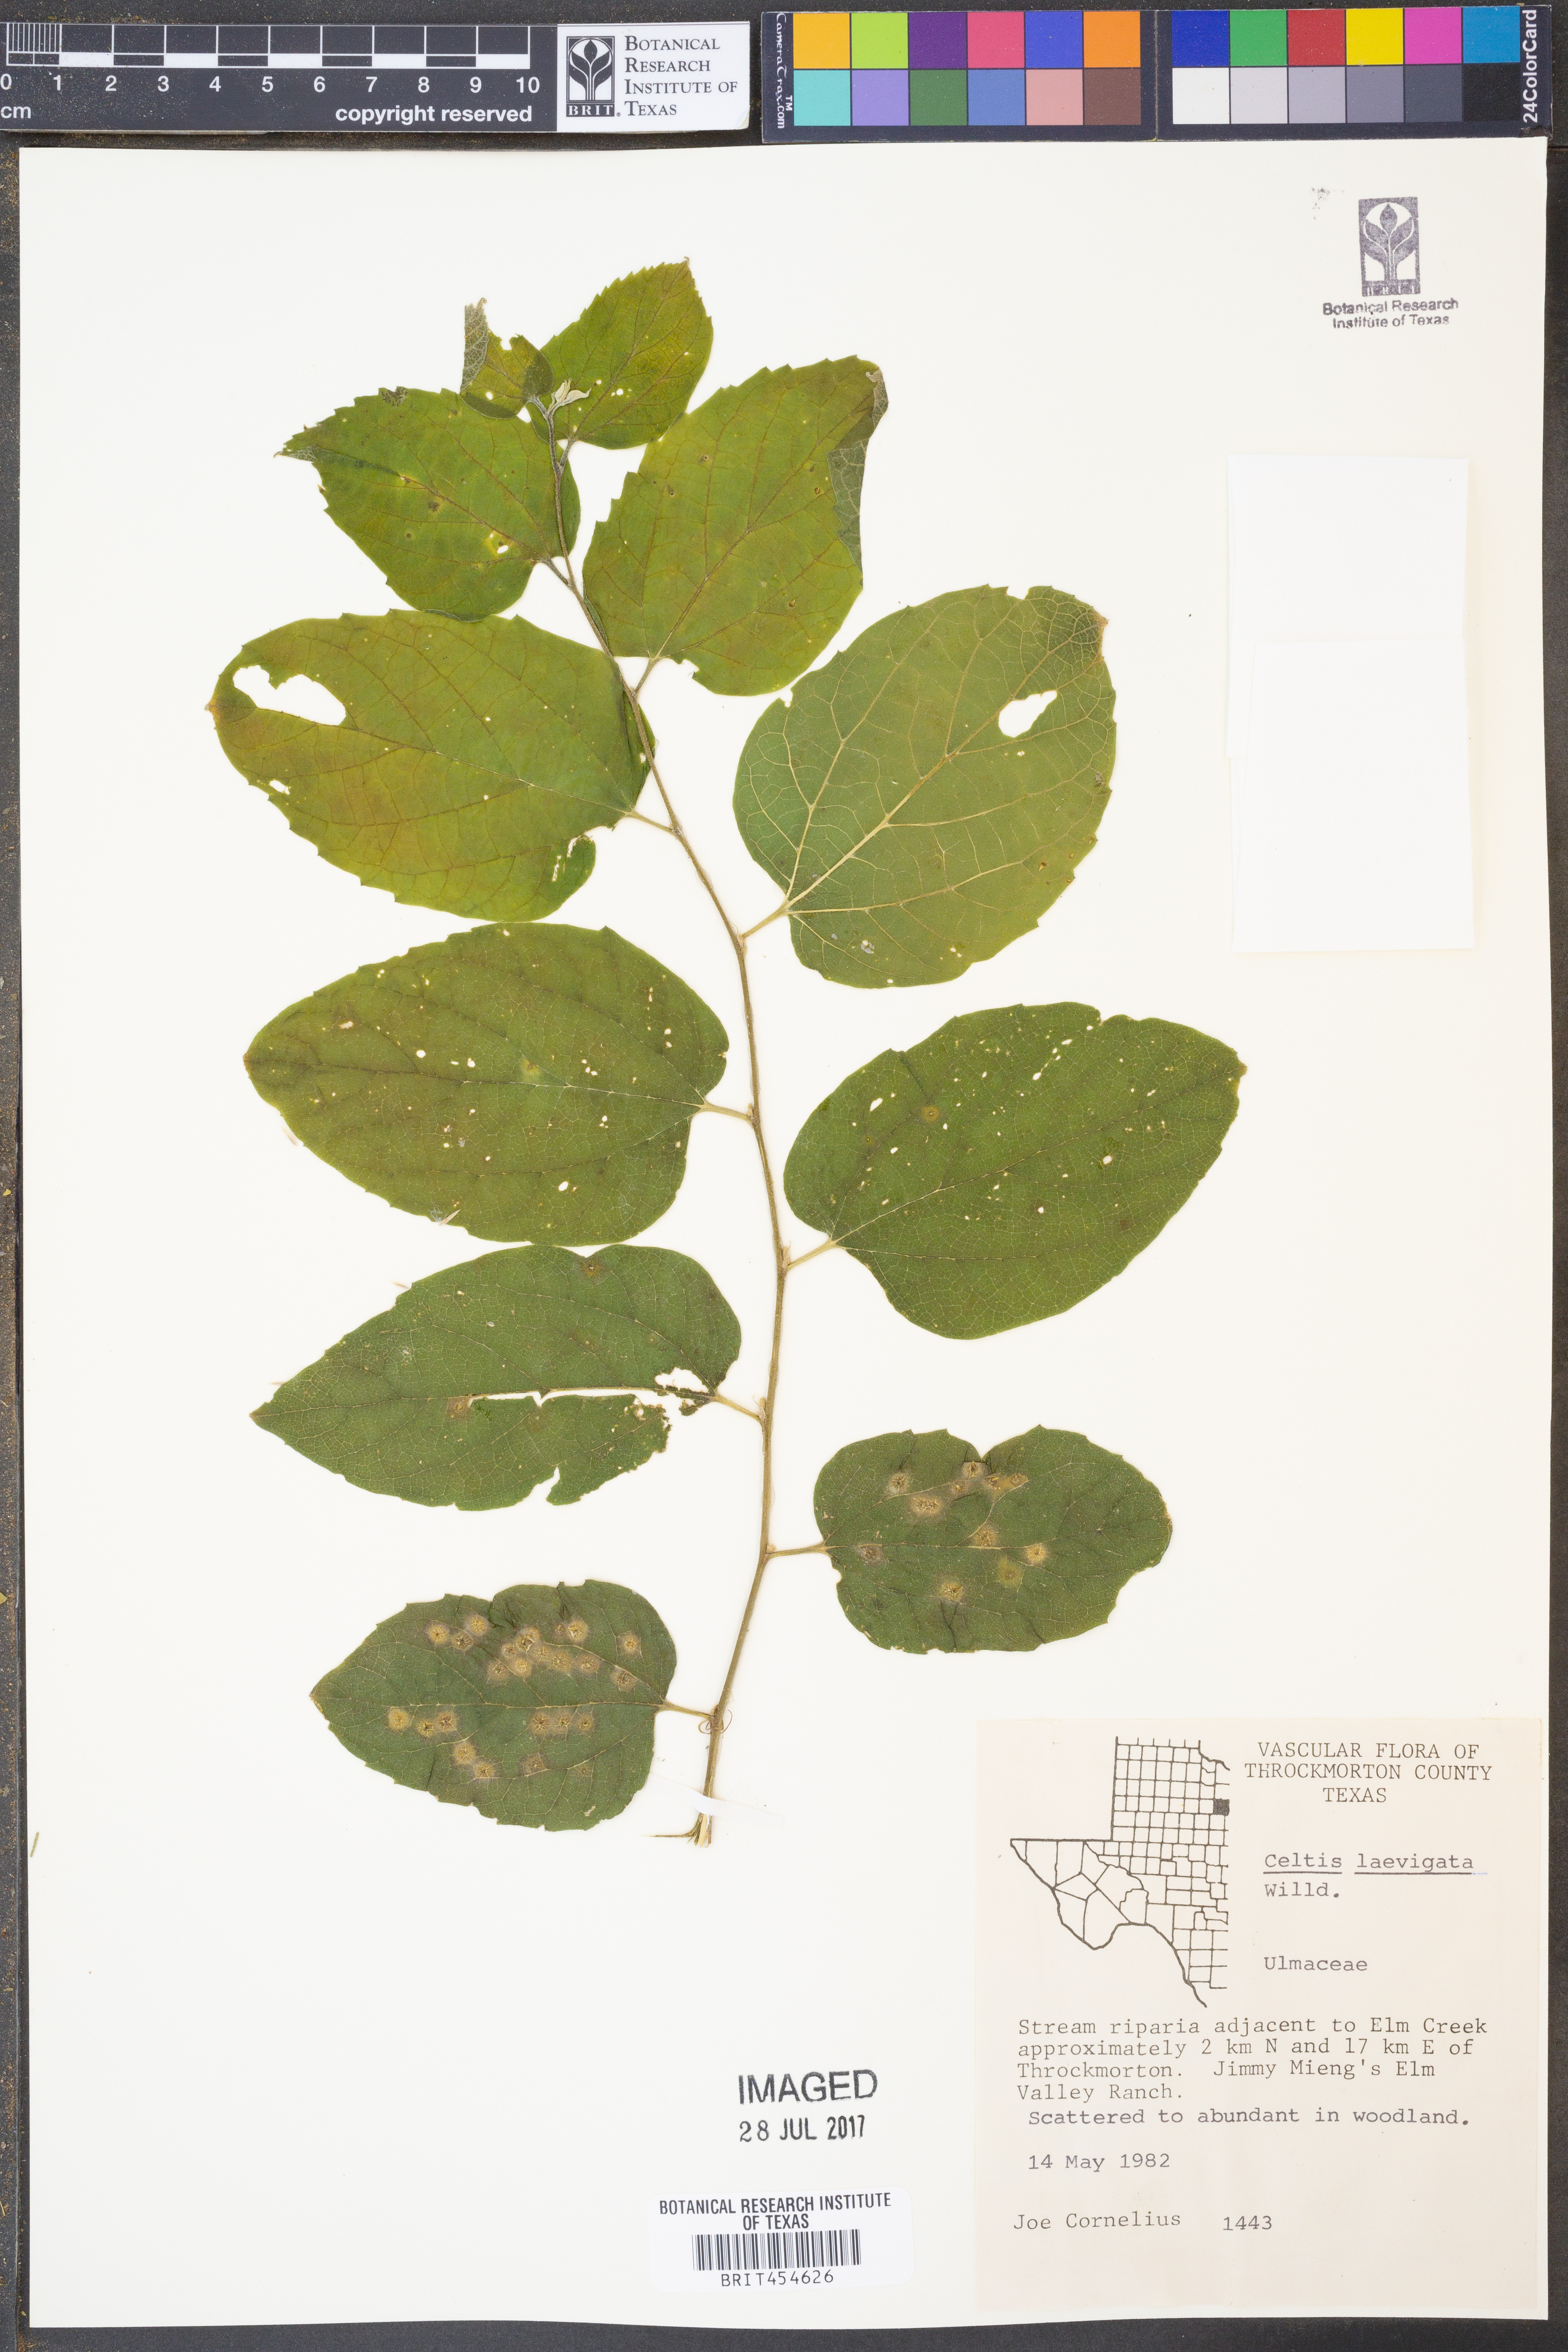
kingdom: Plantae
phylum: Tracheophyta
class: Magnoliopsida
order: Rosales
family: Cannabaceae
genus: Celtis
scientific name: Celtis laevigata
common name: Sugarberry
